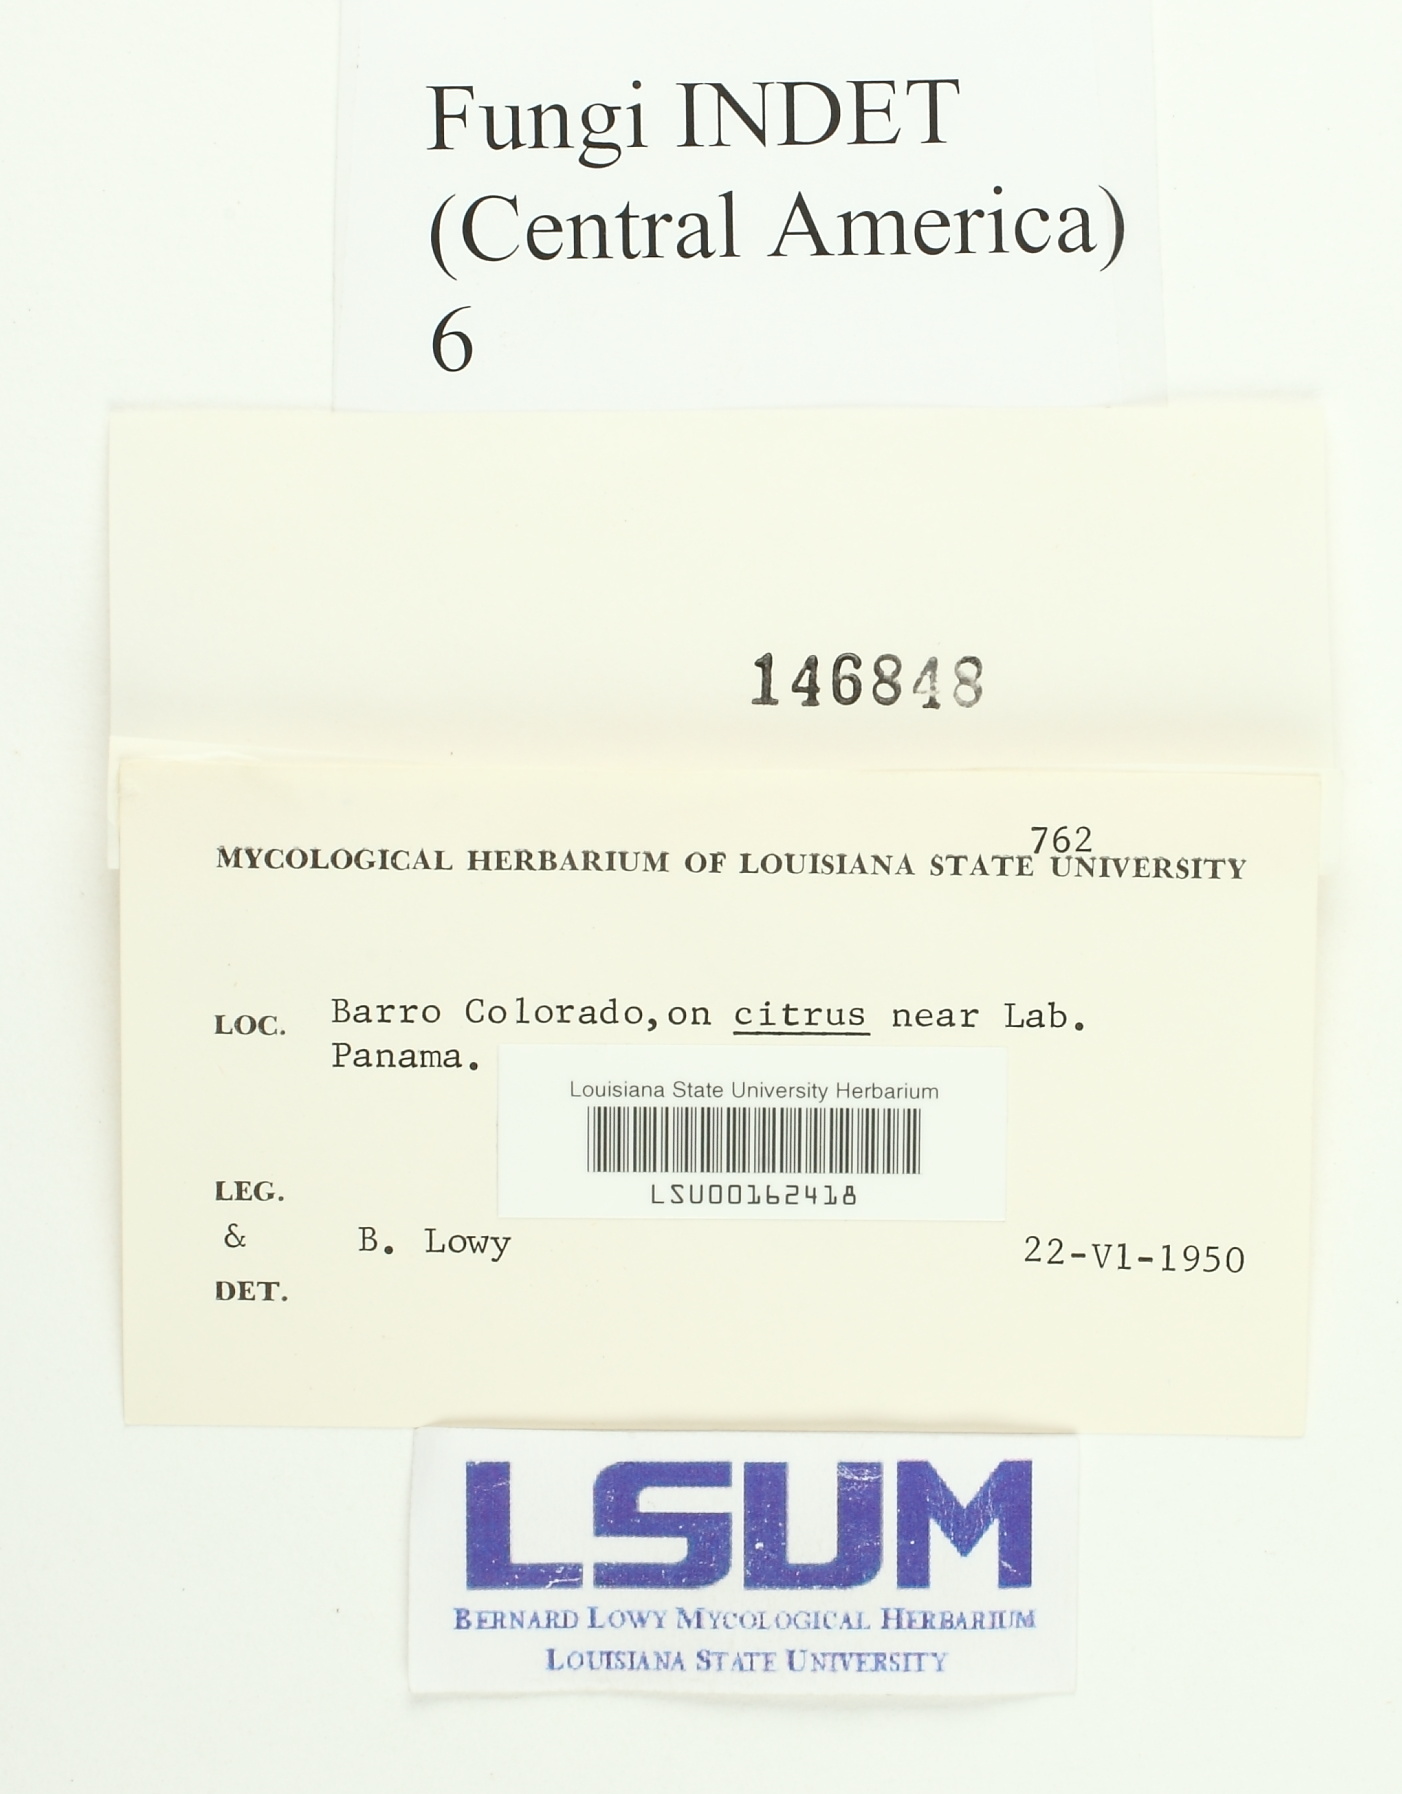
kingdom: Fungi
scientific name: Fungi
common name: Fungi
